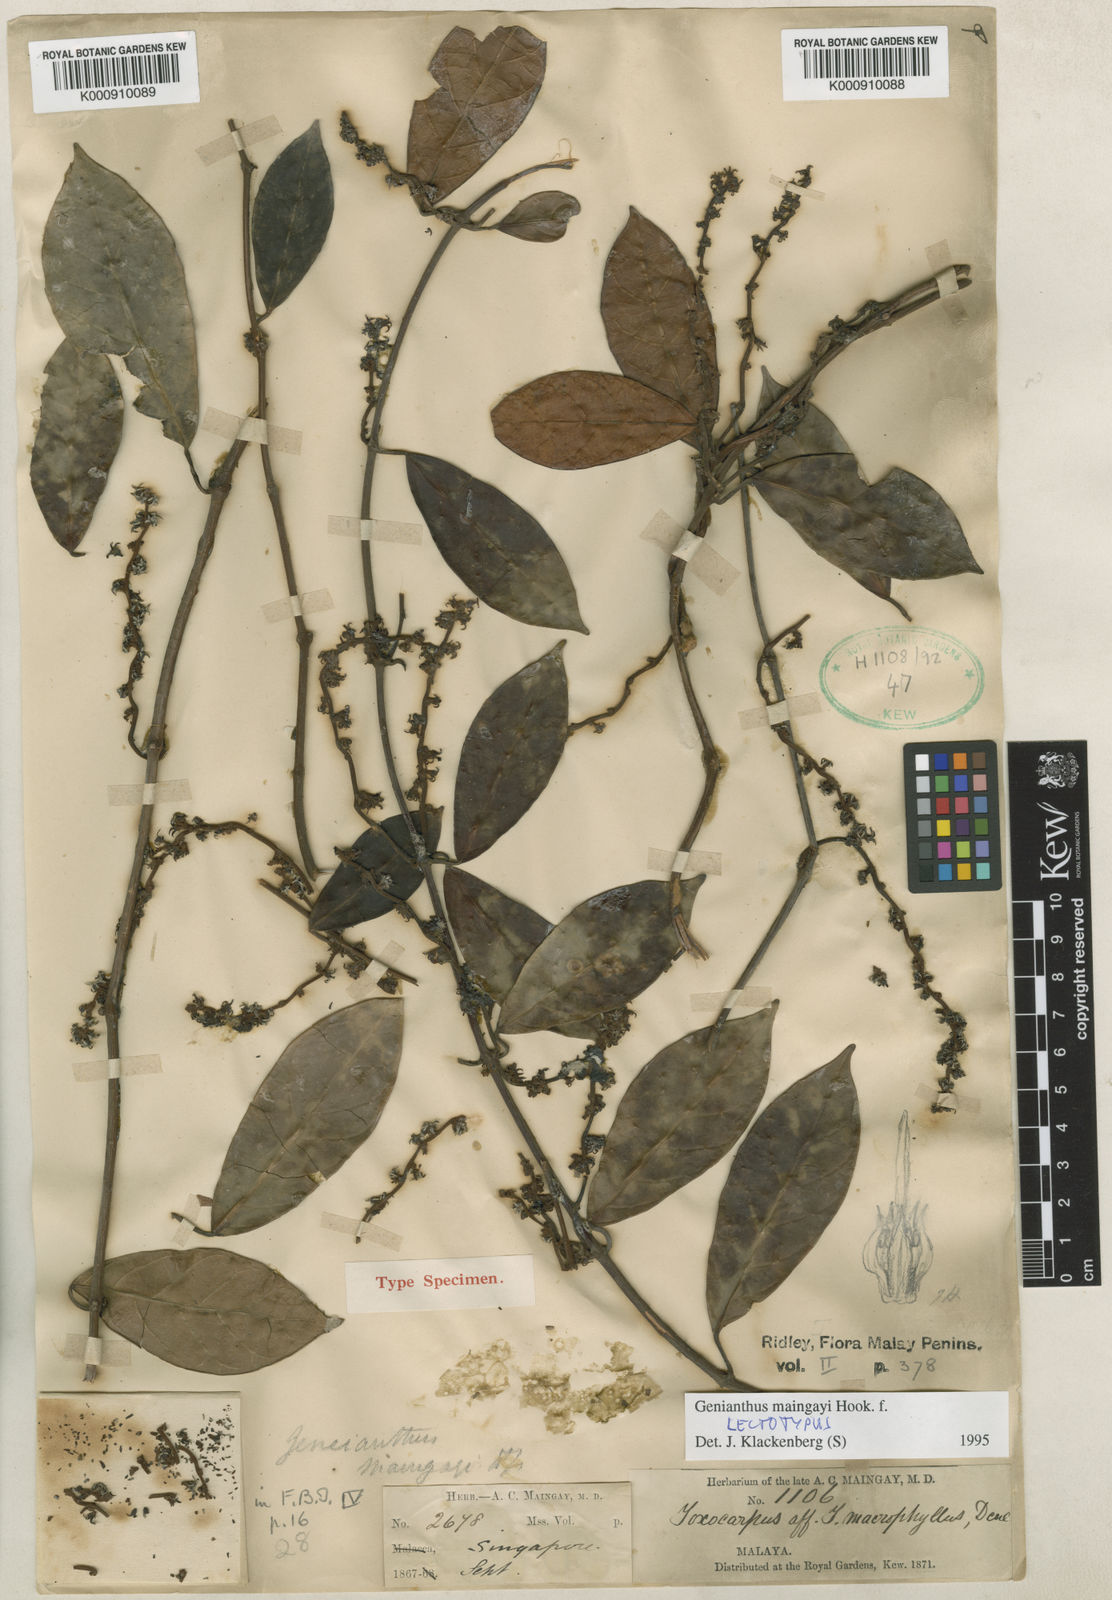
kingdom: Plantae
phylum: Tracheophyta
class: Magnoliopsida
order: Gentianales
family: Apocynaceae
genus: Secamone
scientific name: Secamone maingayi
